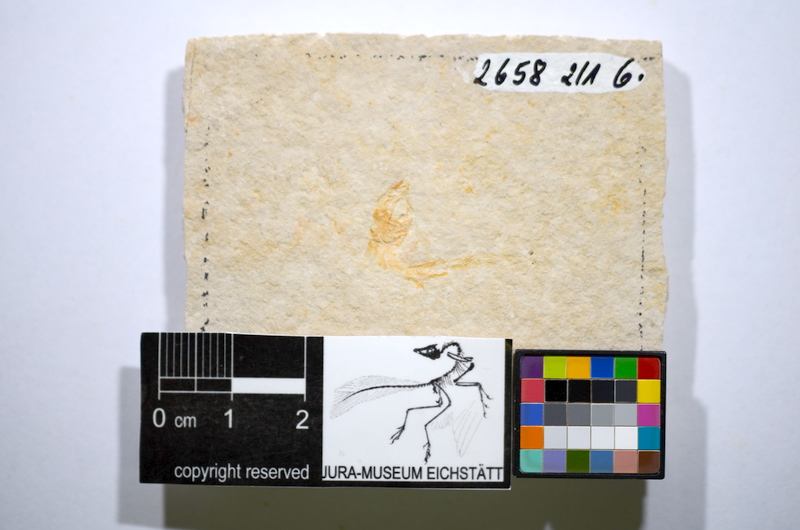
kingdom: Animalia
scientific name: Animalia
